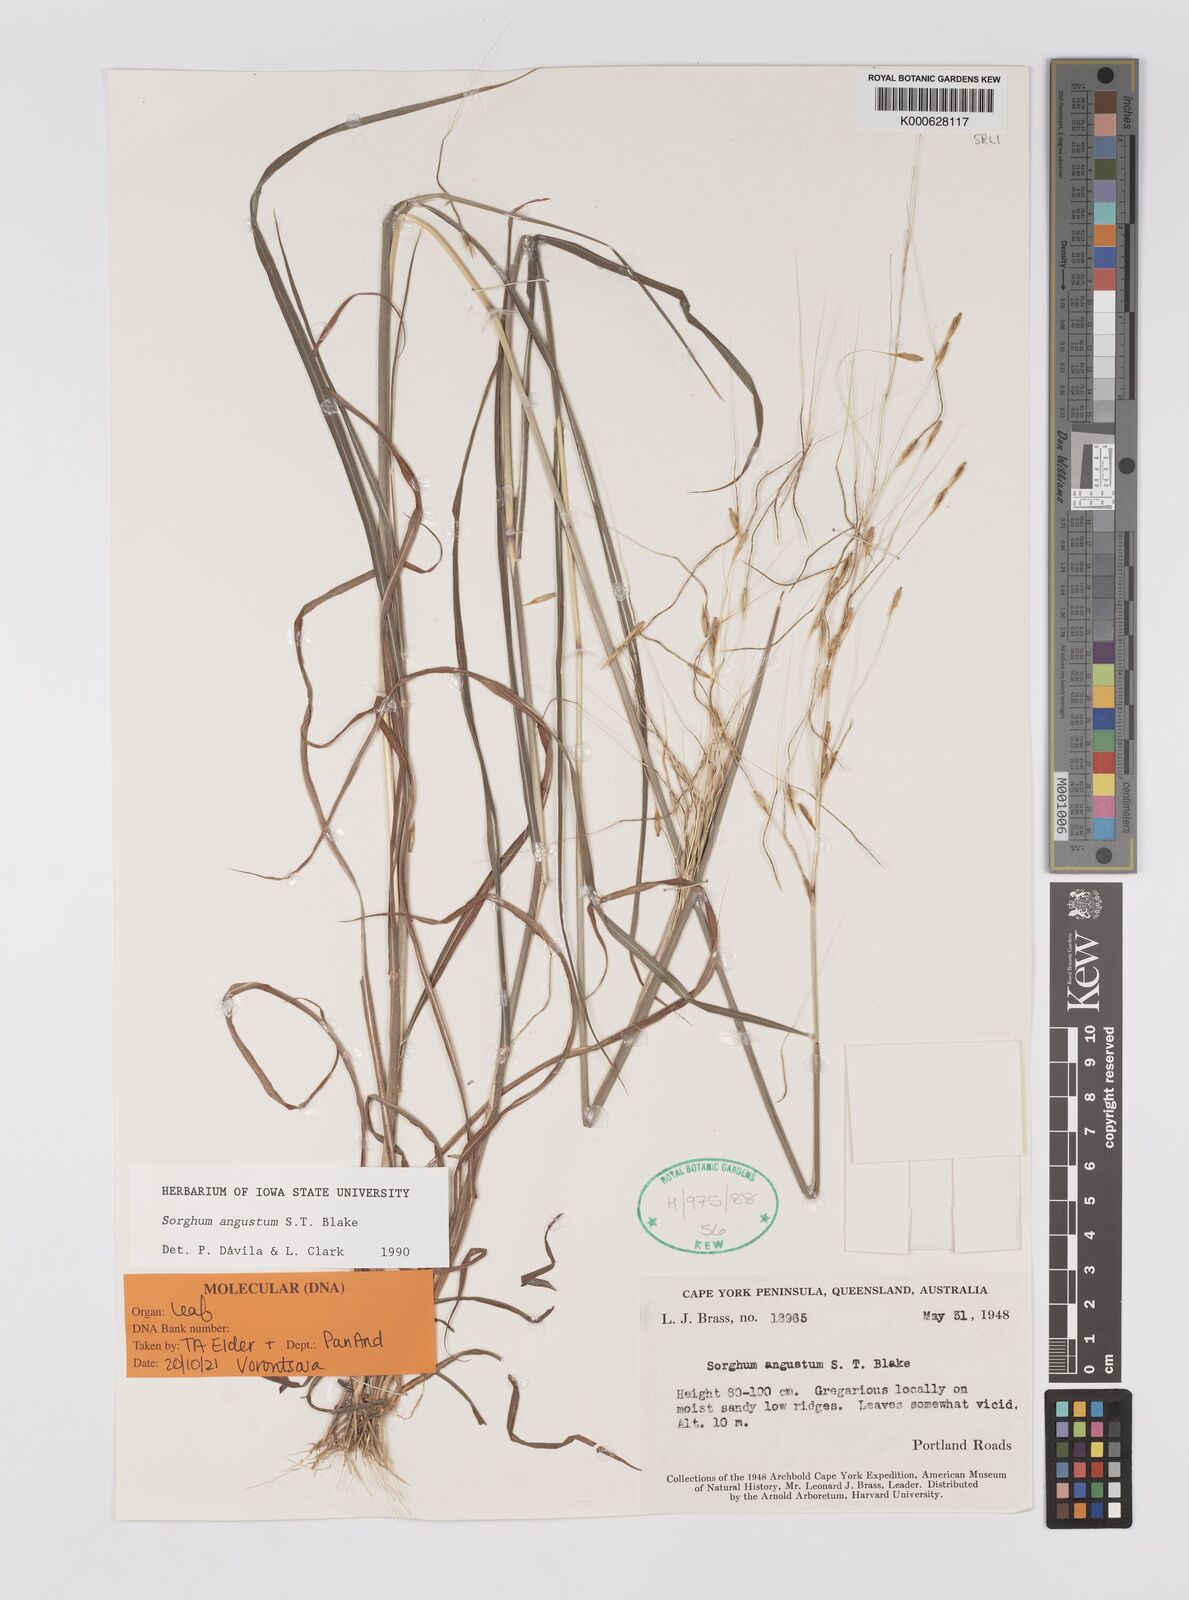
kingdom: Plantae
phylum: Tracheophyta
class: Liliopsida
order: Poales
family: Poaceae
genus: Sarga
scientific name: Sarga angusta
